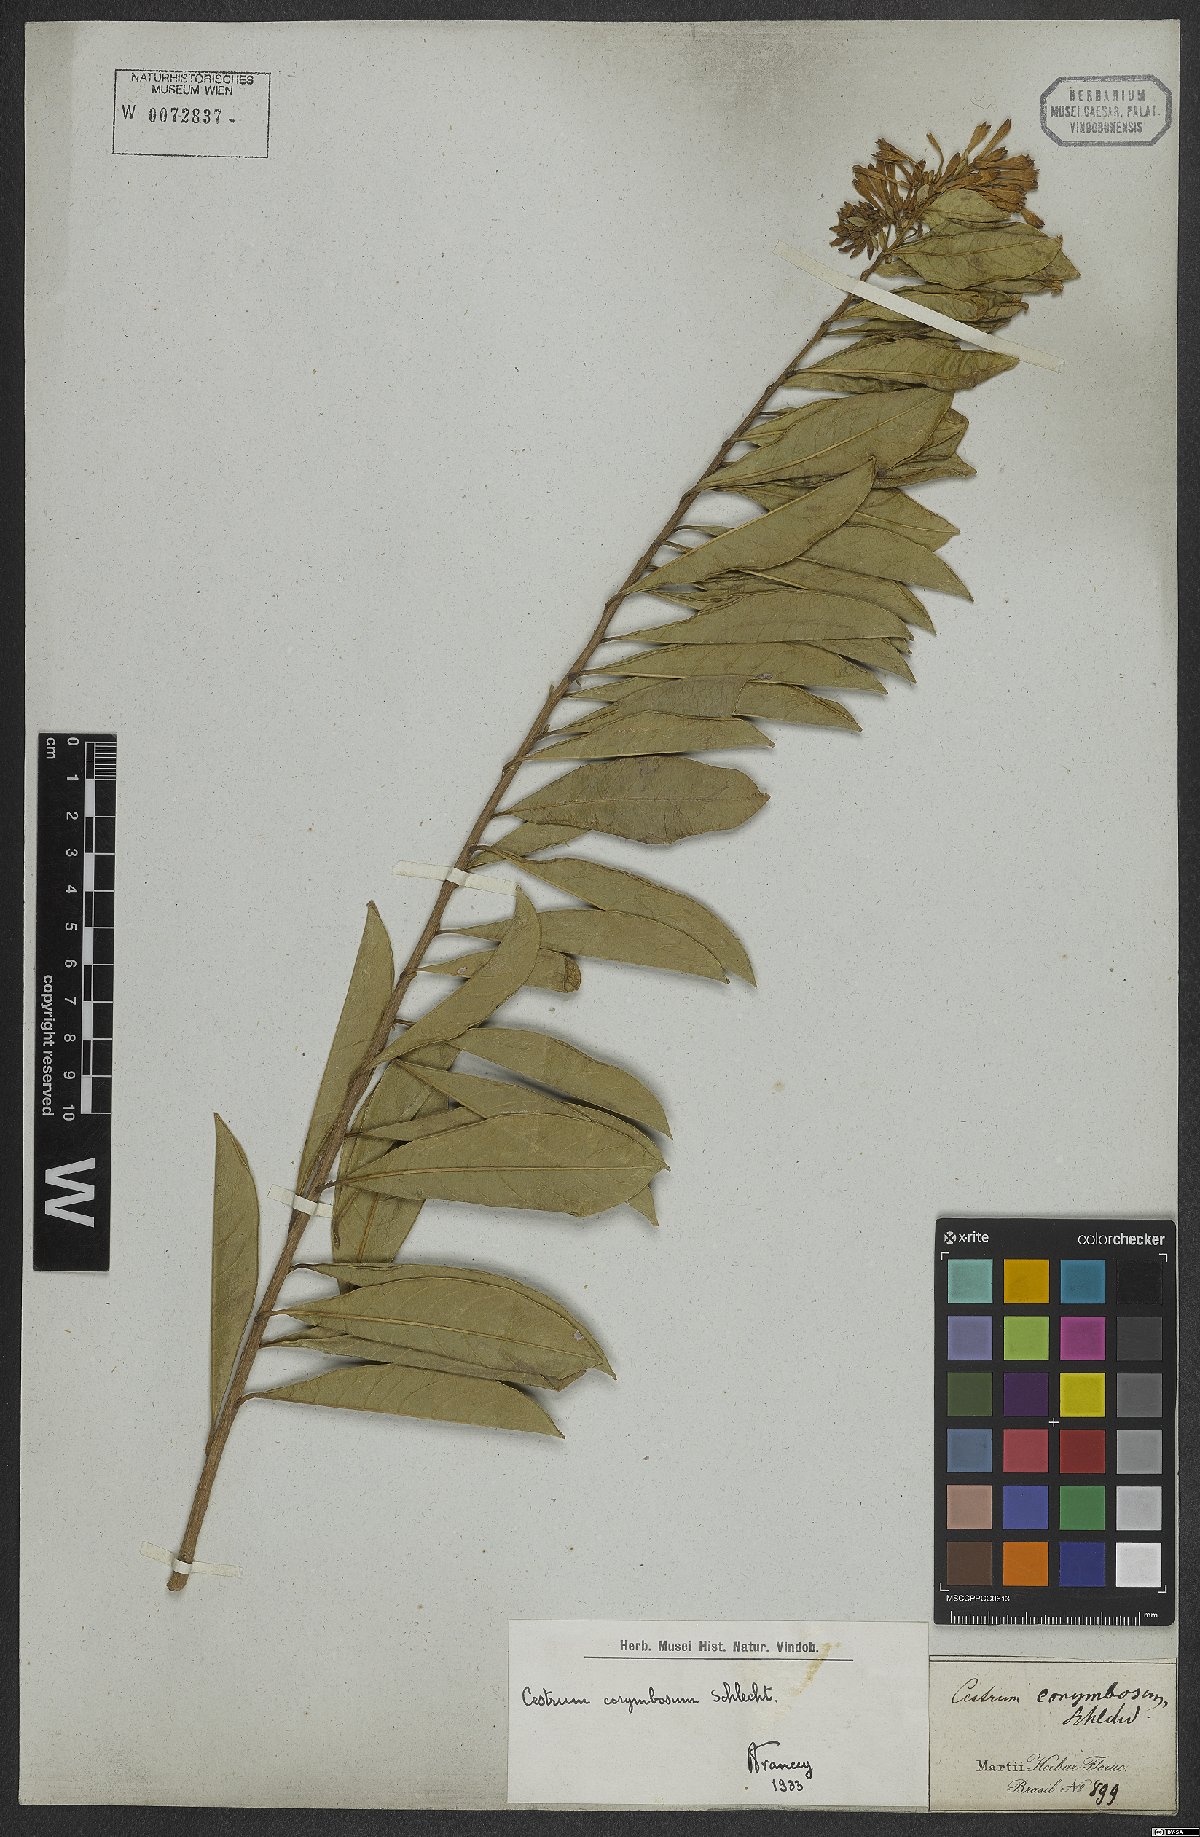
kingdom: Plantae
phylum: Tracheophyta
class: Magnoliopsida
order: Solanales
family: Solanaceae
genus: Cestrum
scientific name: Cestrum corymbosum
